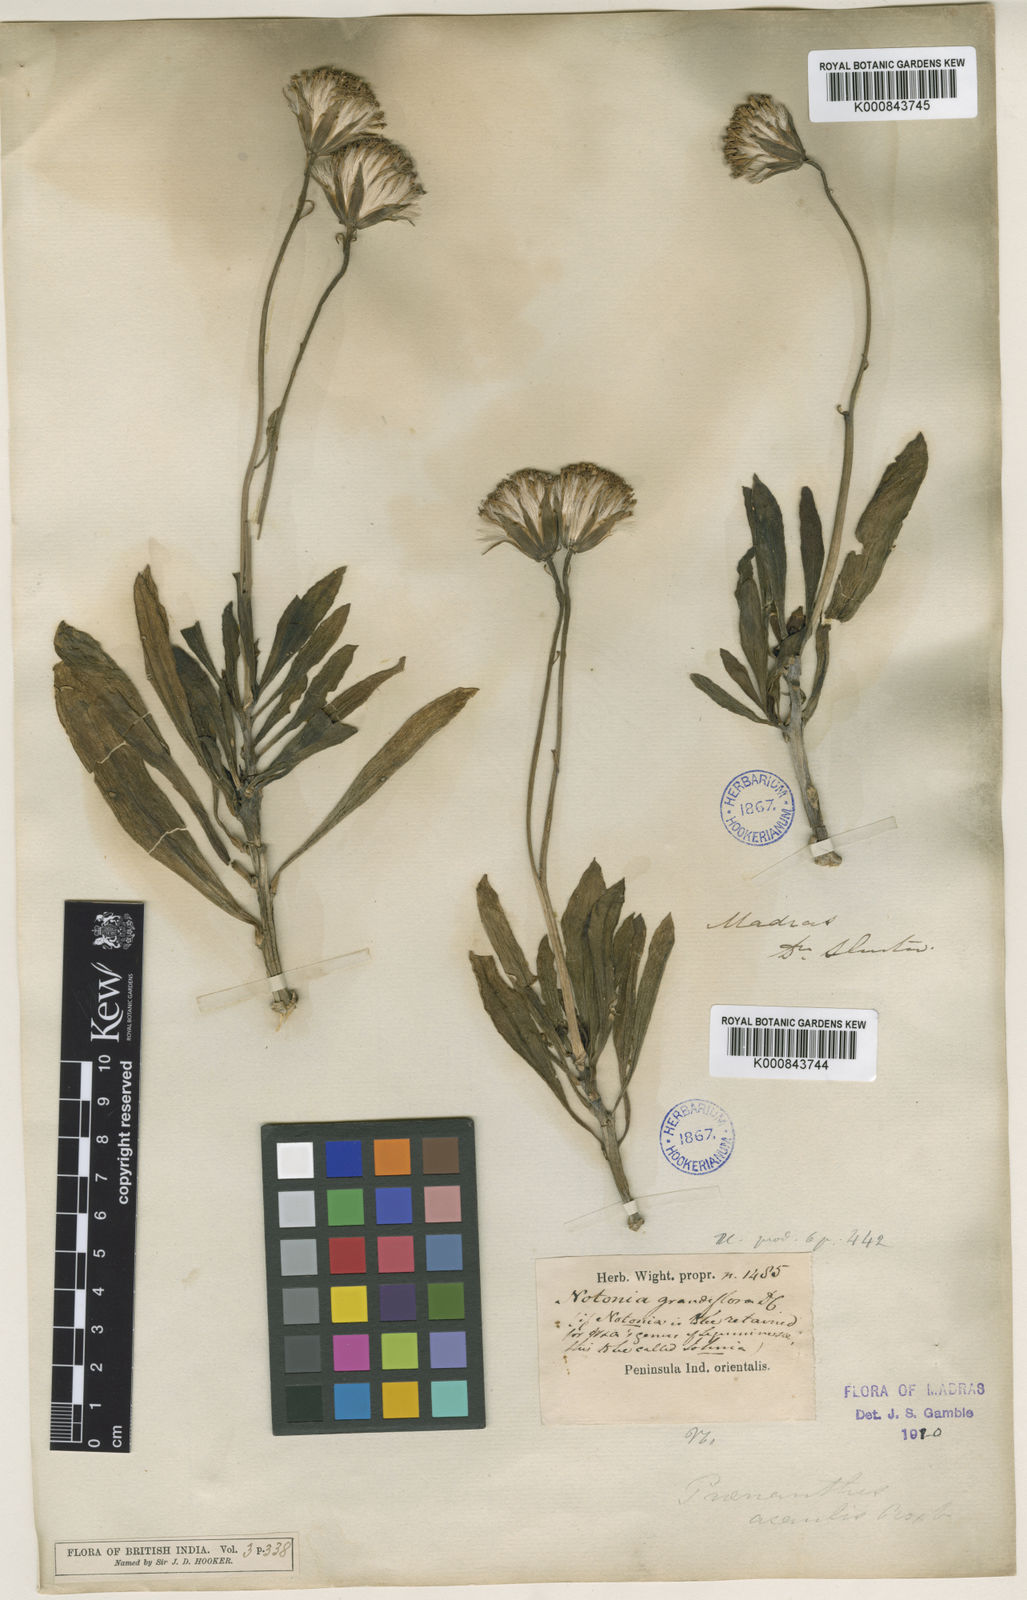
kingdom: Plantae
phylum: Tracheophyta
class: Magnoliopsida
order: Asterales
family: Asteraceae
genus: Kleinia
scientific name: Kleinia grandiflora
